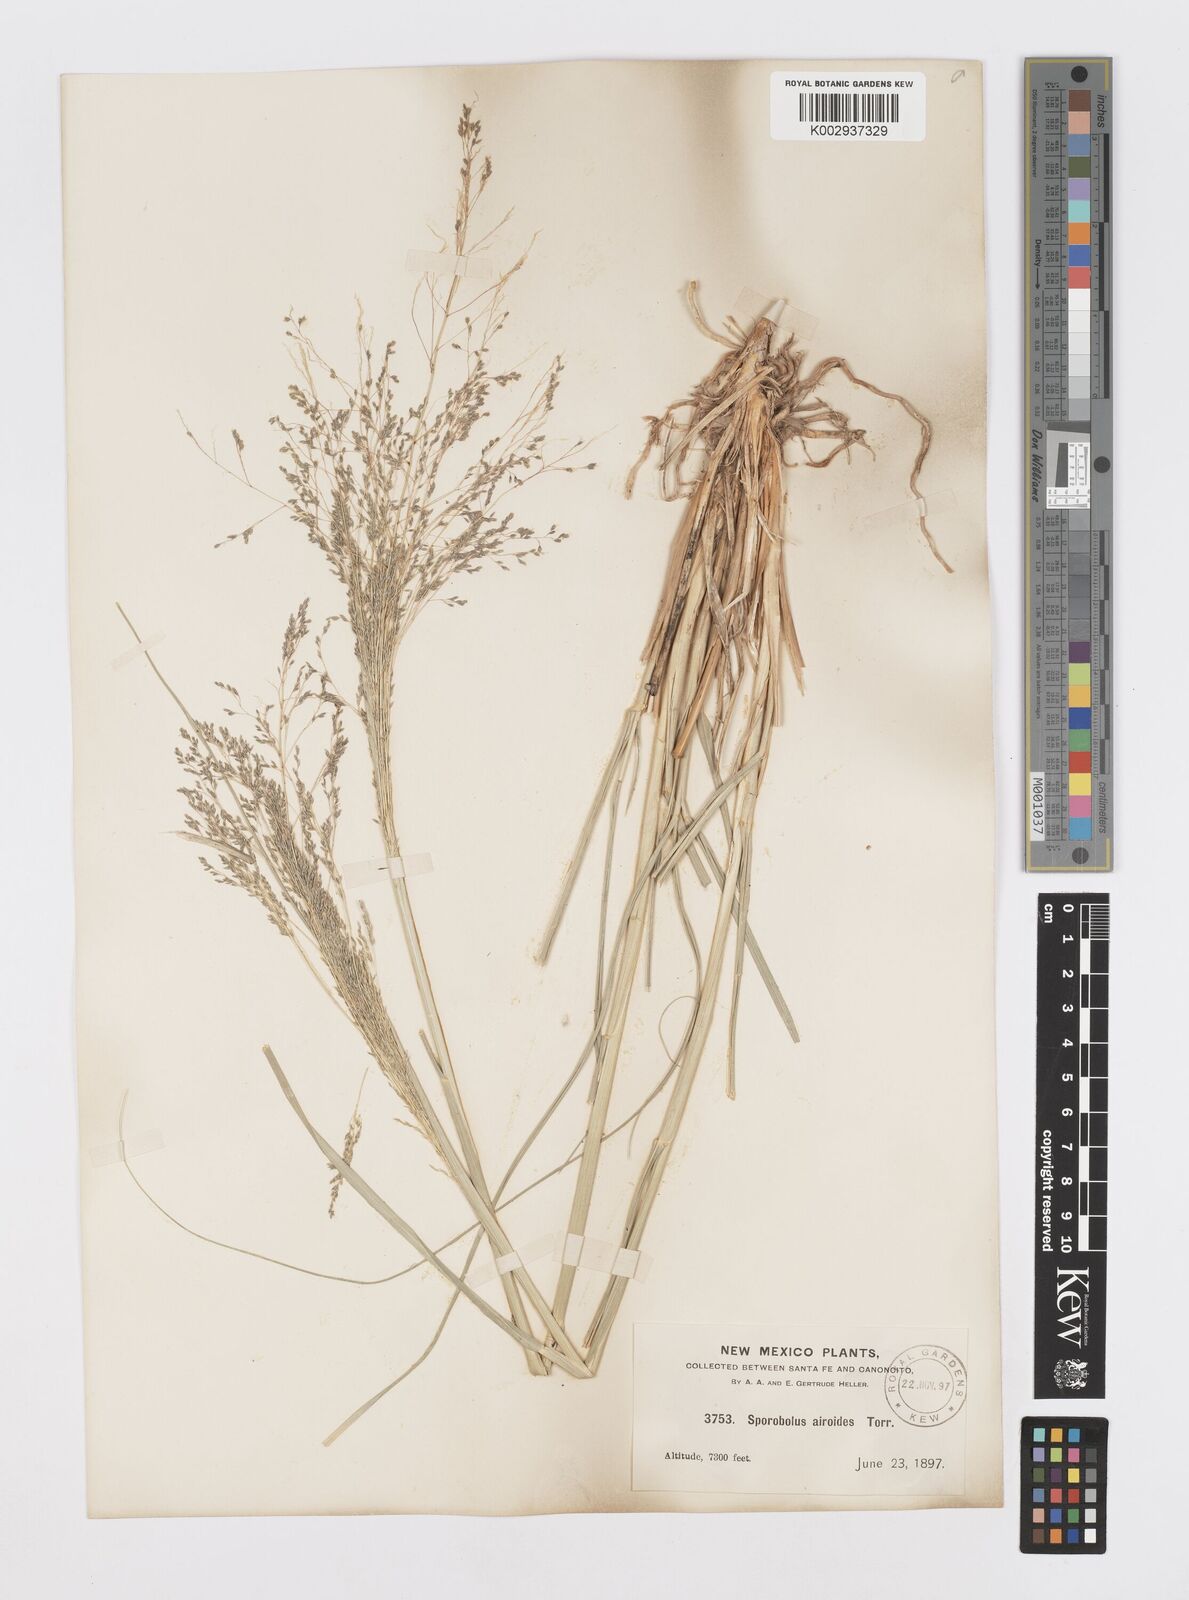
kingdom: Plantae
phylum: Tracheophyta
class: Liliopsida
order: Poales
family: Poaceae
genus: Sporobolus
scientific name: Sporobolus airoides
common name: Alkali sacaton
